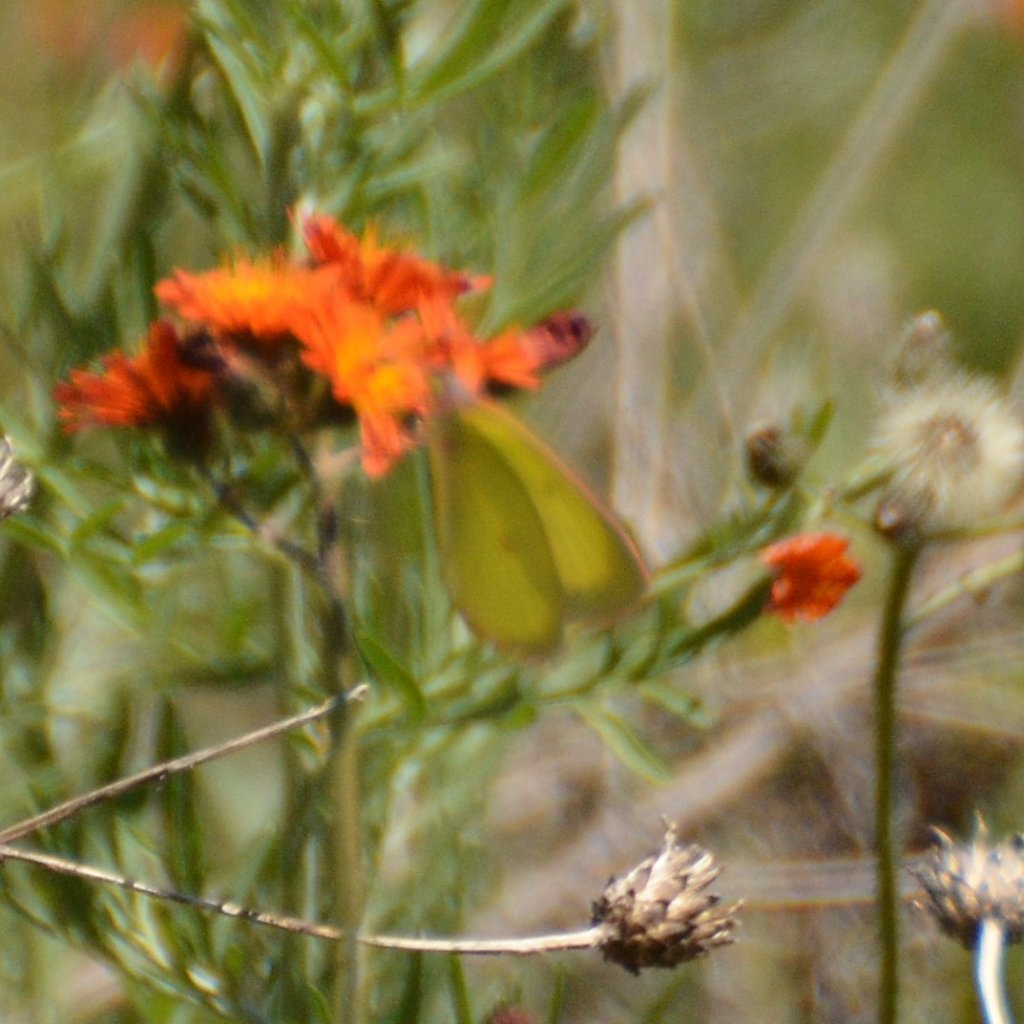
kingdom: Animalia
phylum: Arthropoda
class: Insecta
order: Lepidoptera
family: Pieridae
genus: Colias
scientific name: Colias interior
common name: Pink-edged Sulphur
